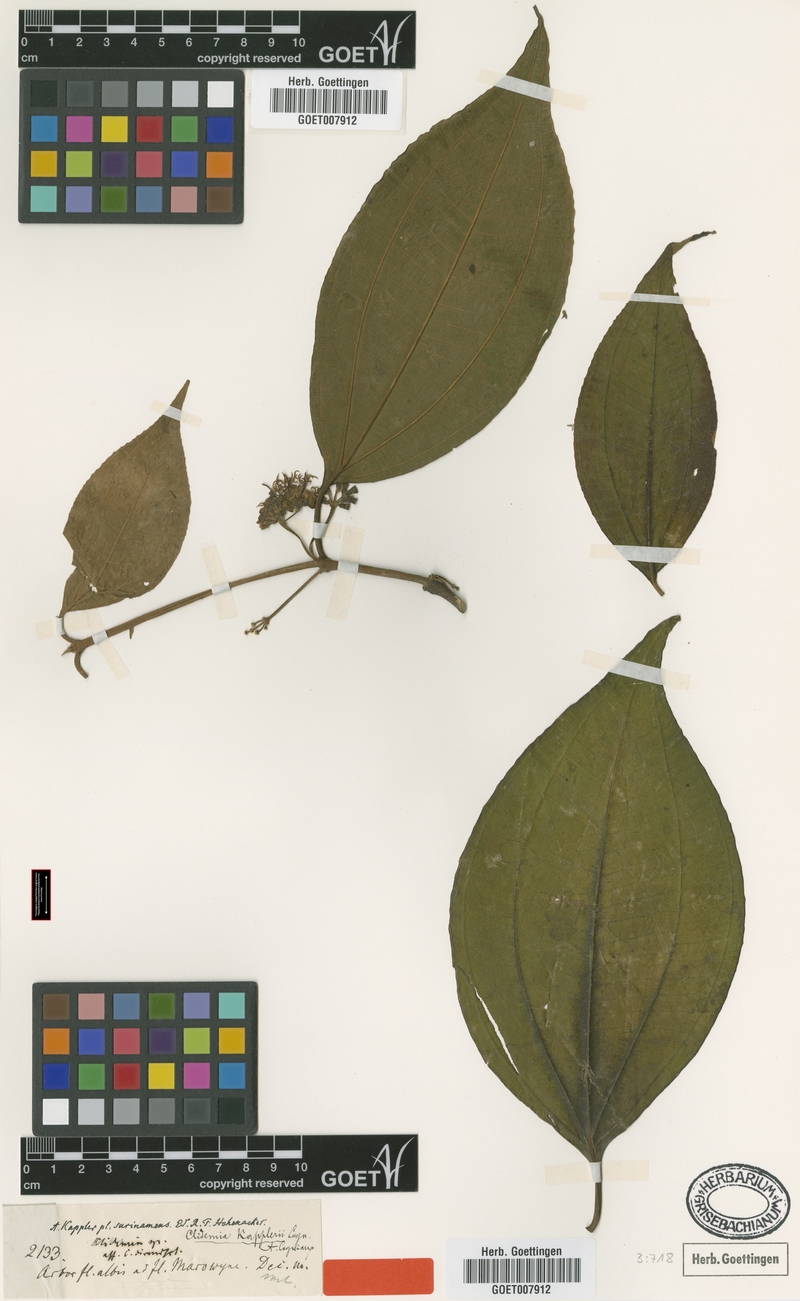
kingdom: Plantae
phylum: Tracheophyta
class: Magnoliopsida
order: Myrtales
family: Melastomataceae
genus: Miconia
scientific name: Miconia augustkappleri
